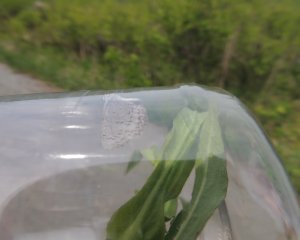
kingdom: Animalia
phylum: Arthropoda
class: Insecta
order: Lepidoptera
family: Lycaenidae
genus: Celastrina
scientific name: Celastrina lucia
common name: Northern Spring Azure
